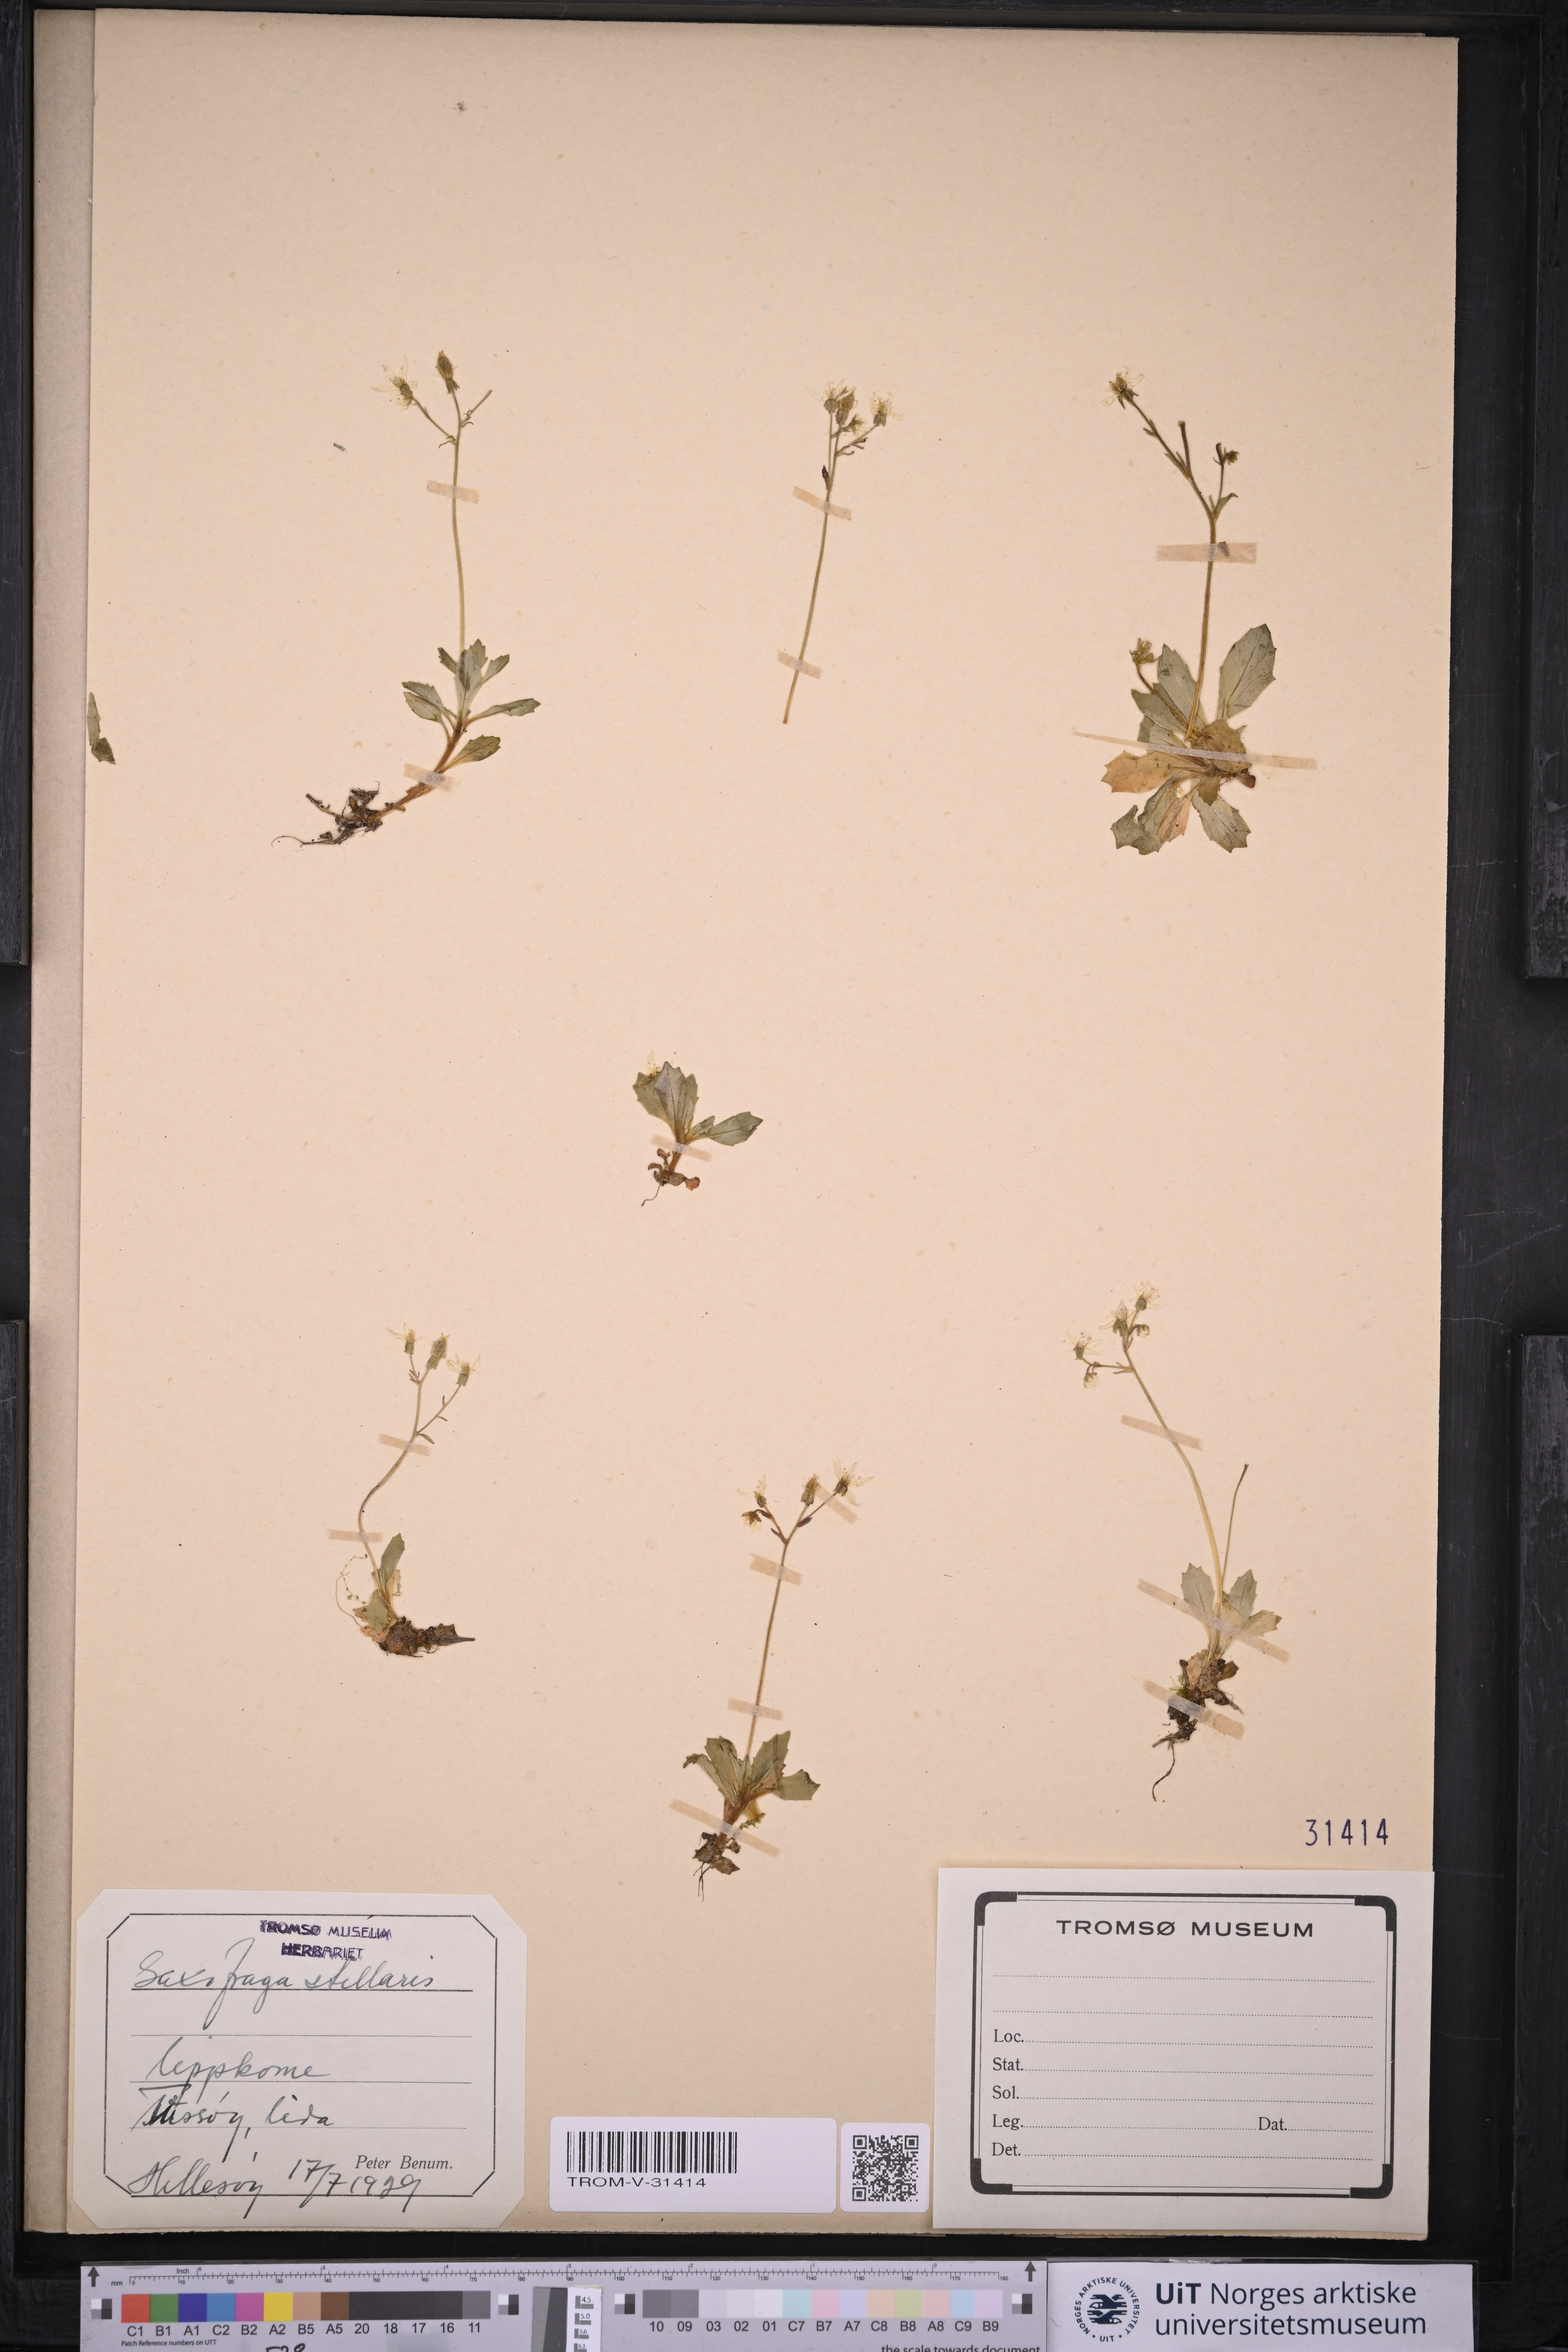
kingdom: Plantae
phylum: Tracheophyta
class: Magnoliopsida
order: Saxifragales
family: Saxifragaceae
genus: Micranthes
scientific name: Micranthes stellaris
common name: Starry saxifrage
